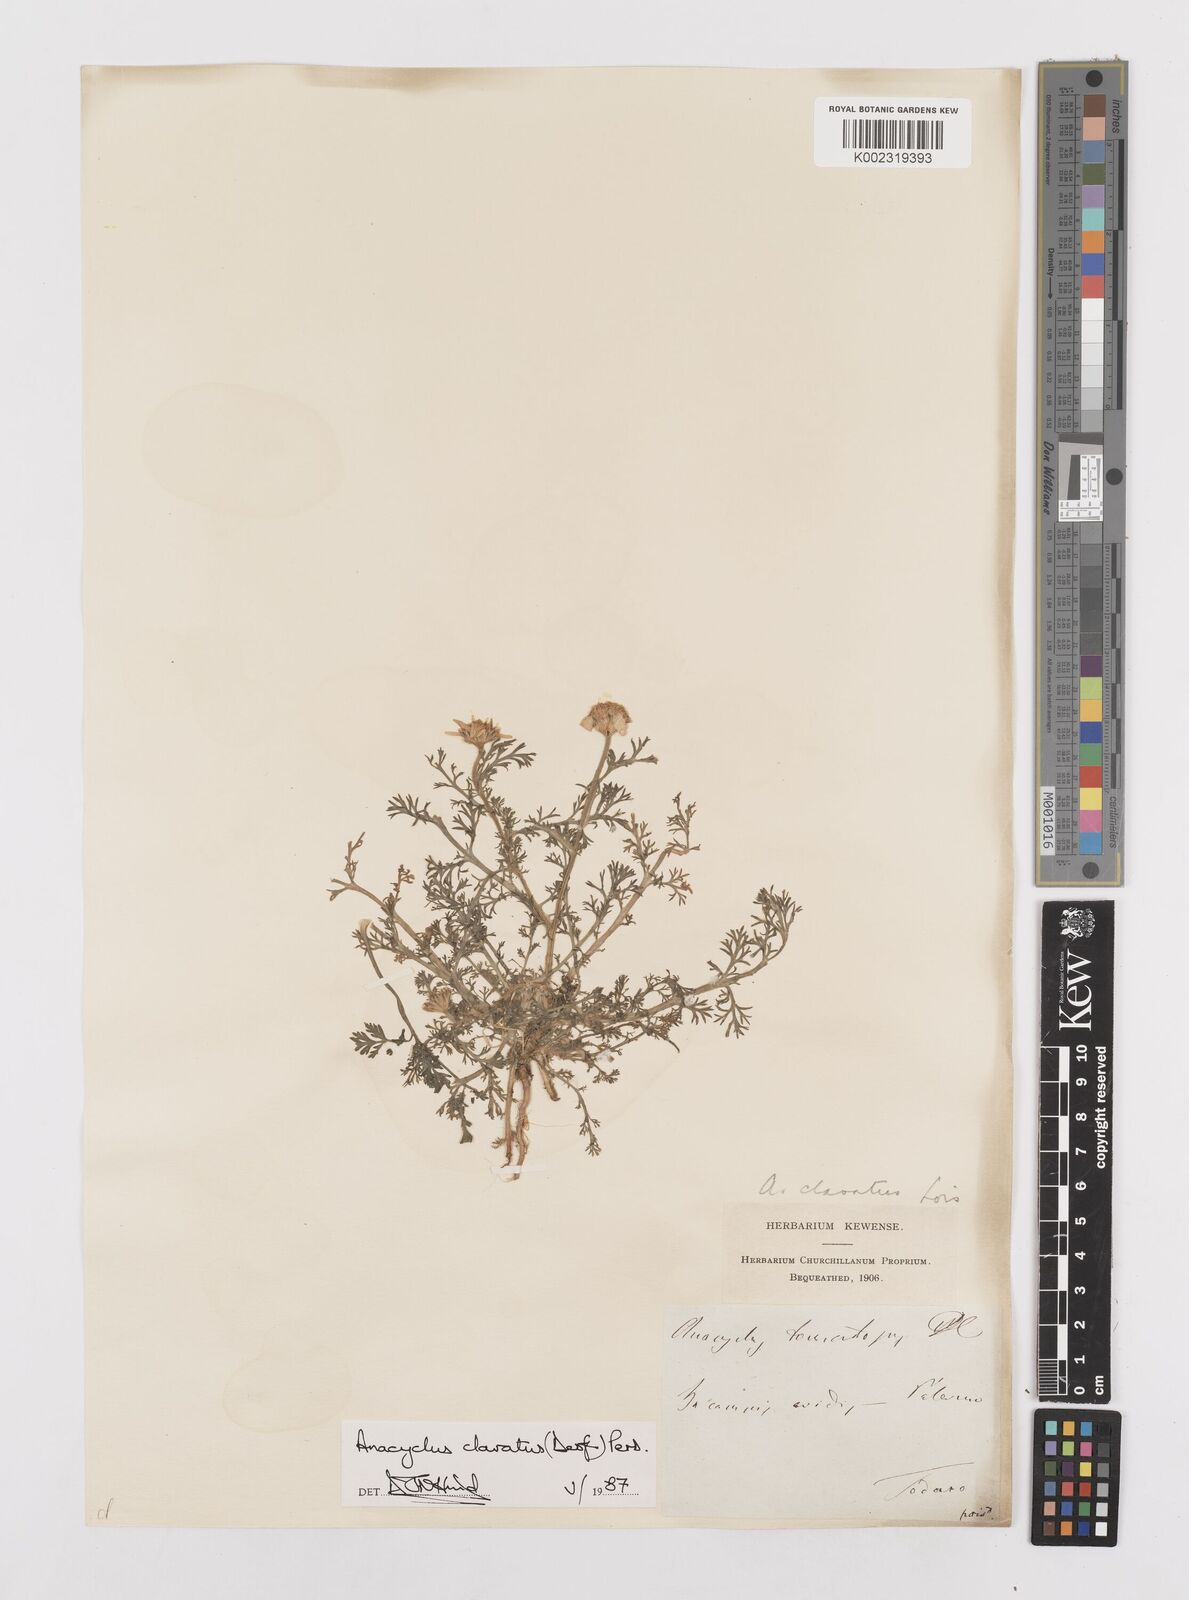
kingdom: Plantae
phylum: Tracheophyta
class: Magnoliopsida
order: Asterales
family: Asteraceae
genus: Anacyclus
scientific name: Anacyclus clavatus
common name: Whitebuttons
